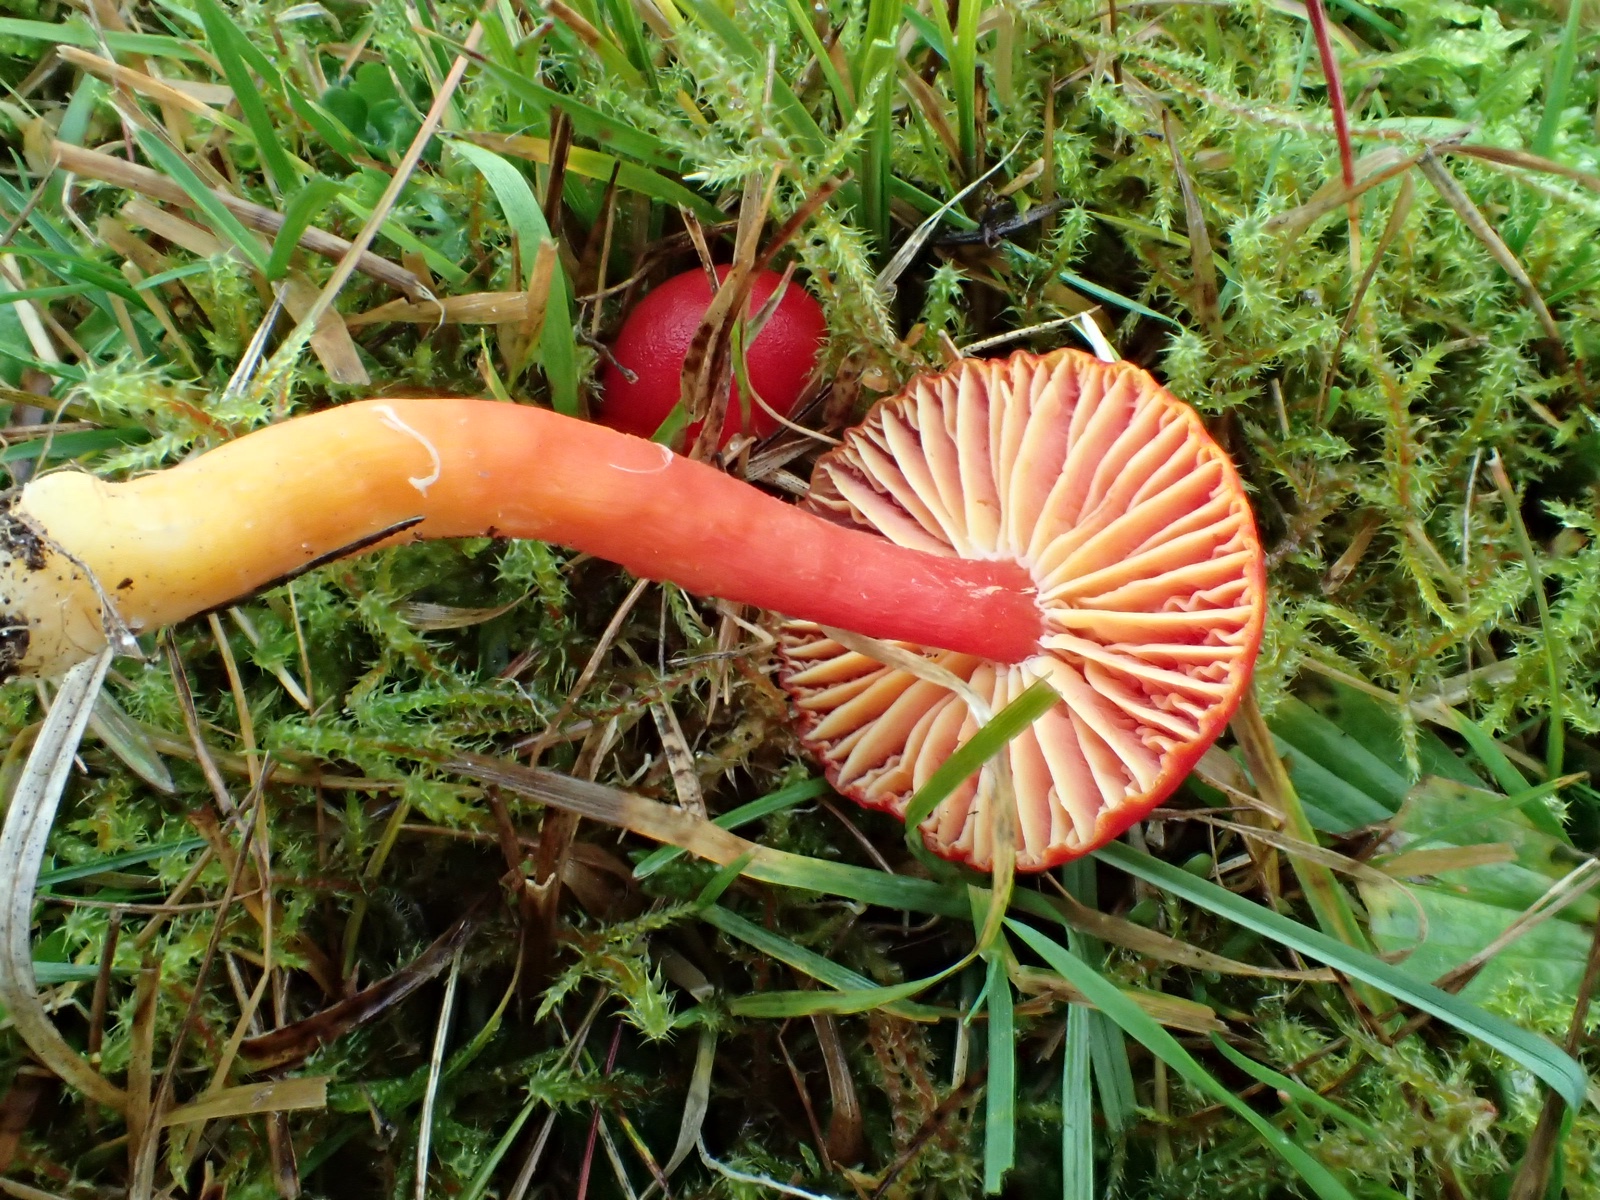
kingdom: Fungi
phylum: Basidiomycota
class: Agaricomycetes
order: Agaricales
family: Hygrophoraceae
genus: Hygrocybe
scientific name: Hygrocybe coccinea
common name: cinnober-vokshat
